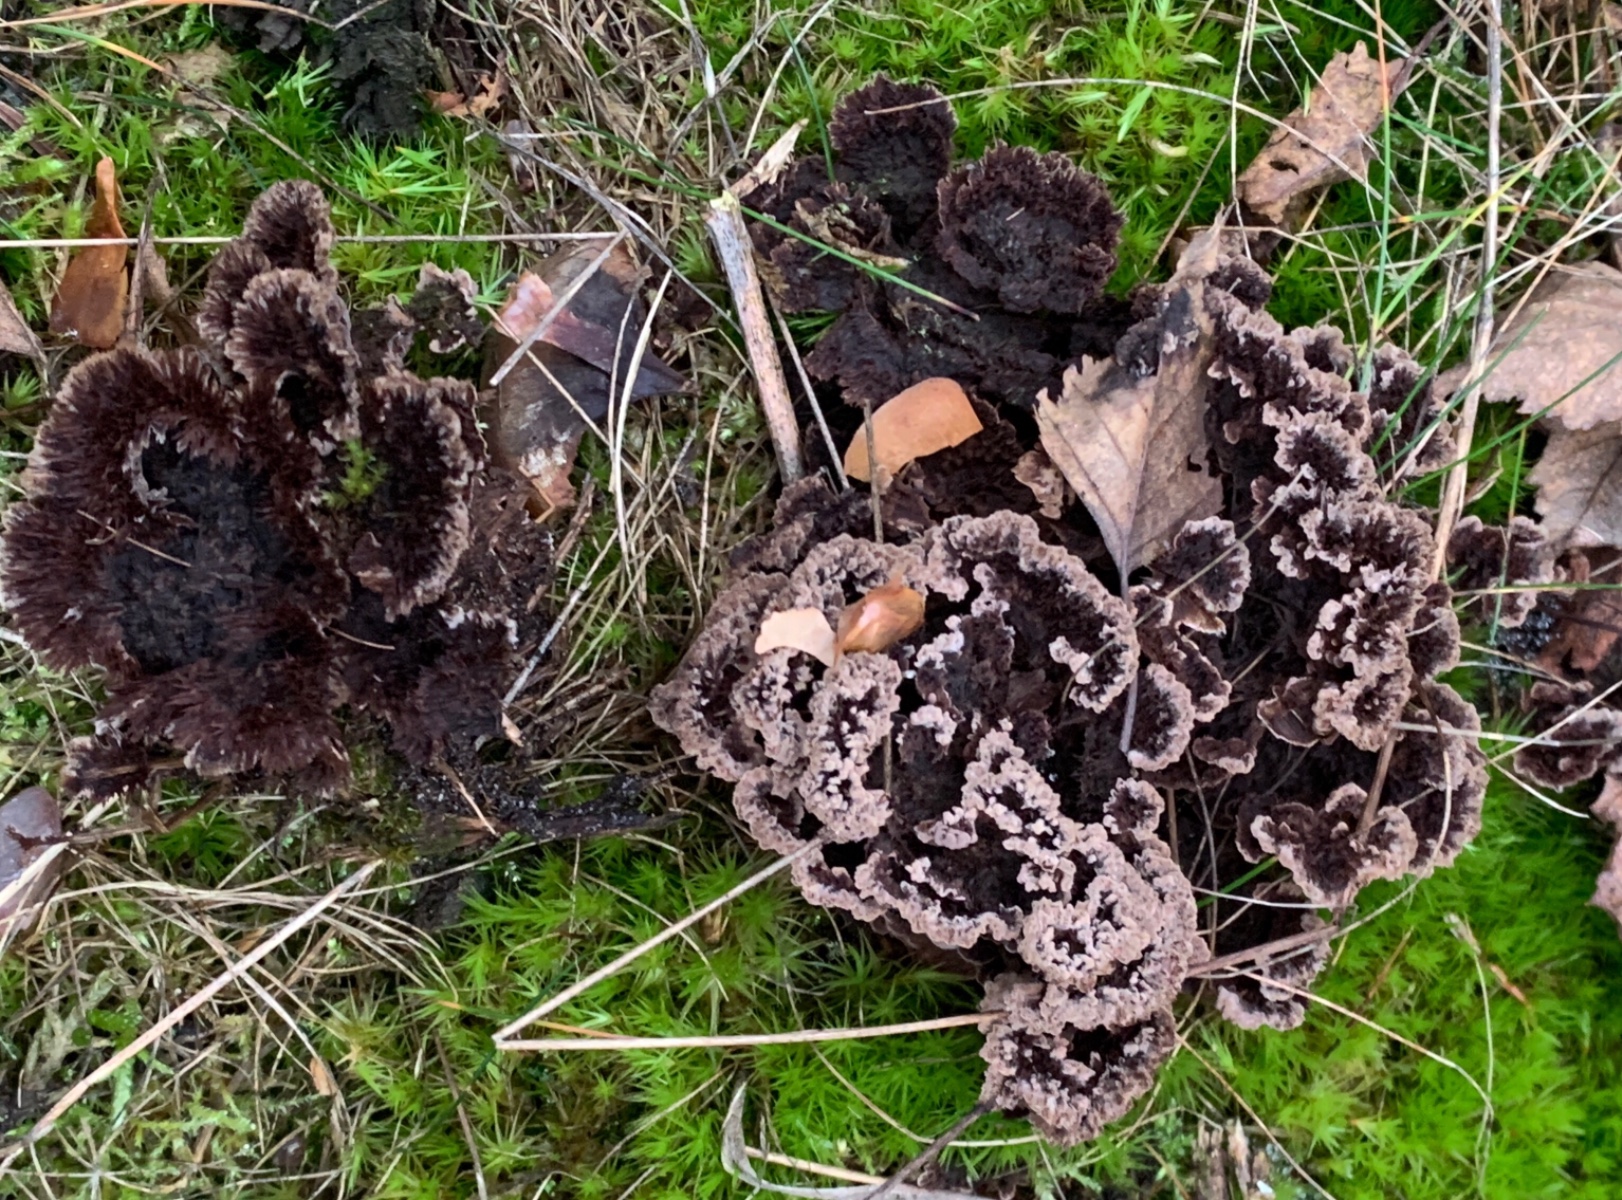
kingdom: Fungi
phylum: Basidiomycota
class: Agaricomycetes
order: Thelephorales
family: Thelephoraceae
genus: Thelephora
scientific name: Thelephora terrestris
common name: fliget frynsesvamp
